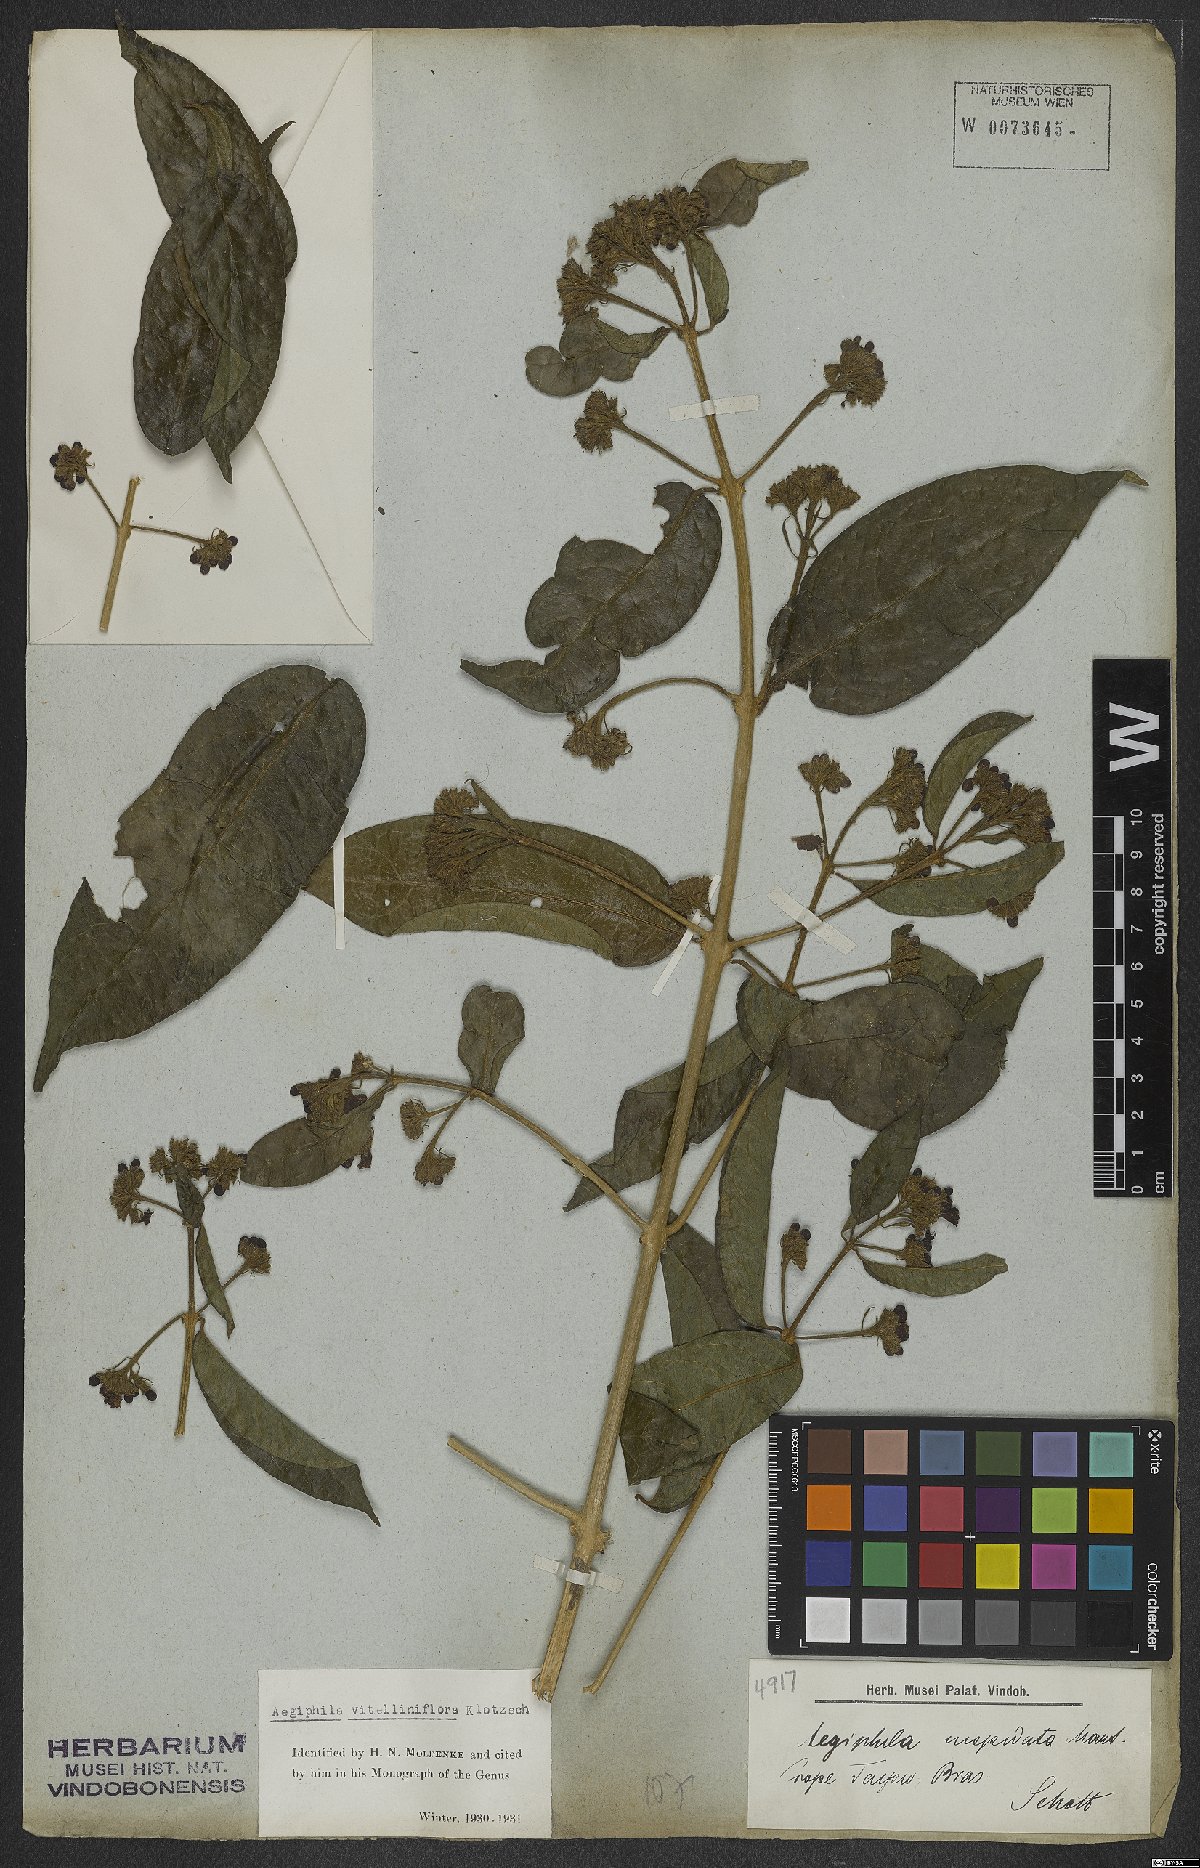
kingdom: Plantae
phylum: Tracheophyta
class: Magnoliopsida
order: Lamiales
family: Lamiaceae
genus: Aegiphila
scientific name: Aegiphila vitelliniflora
